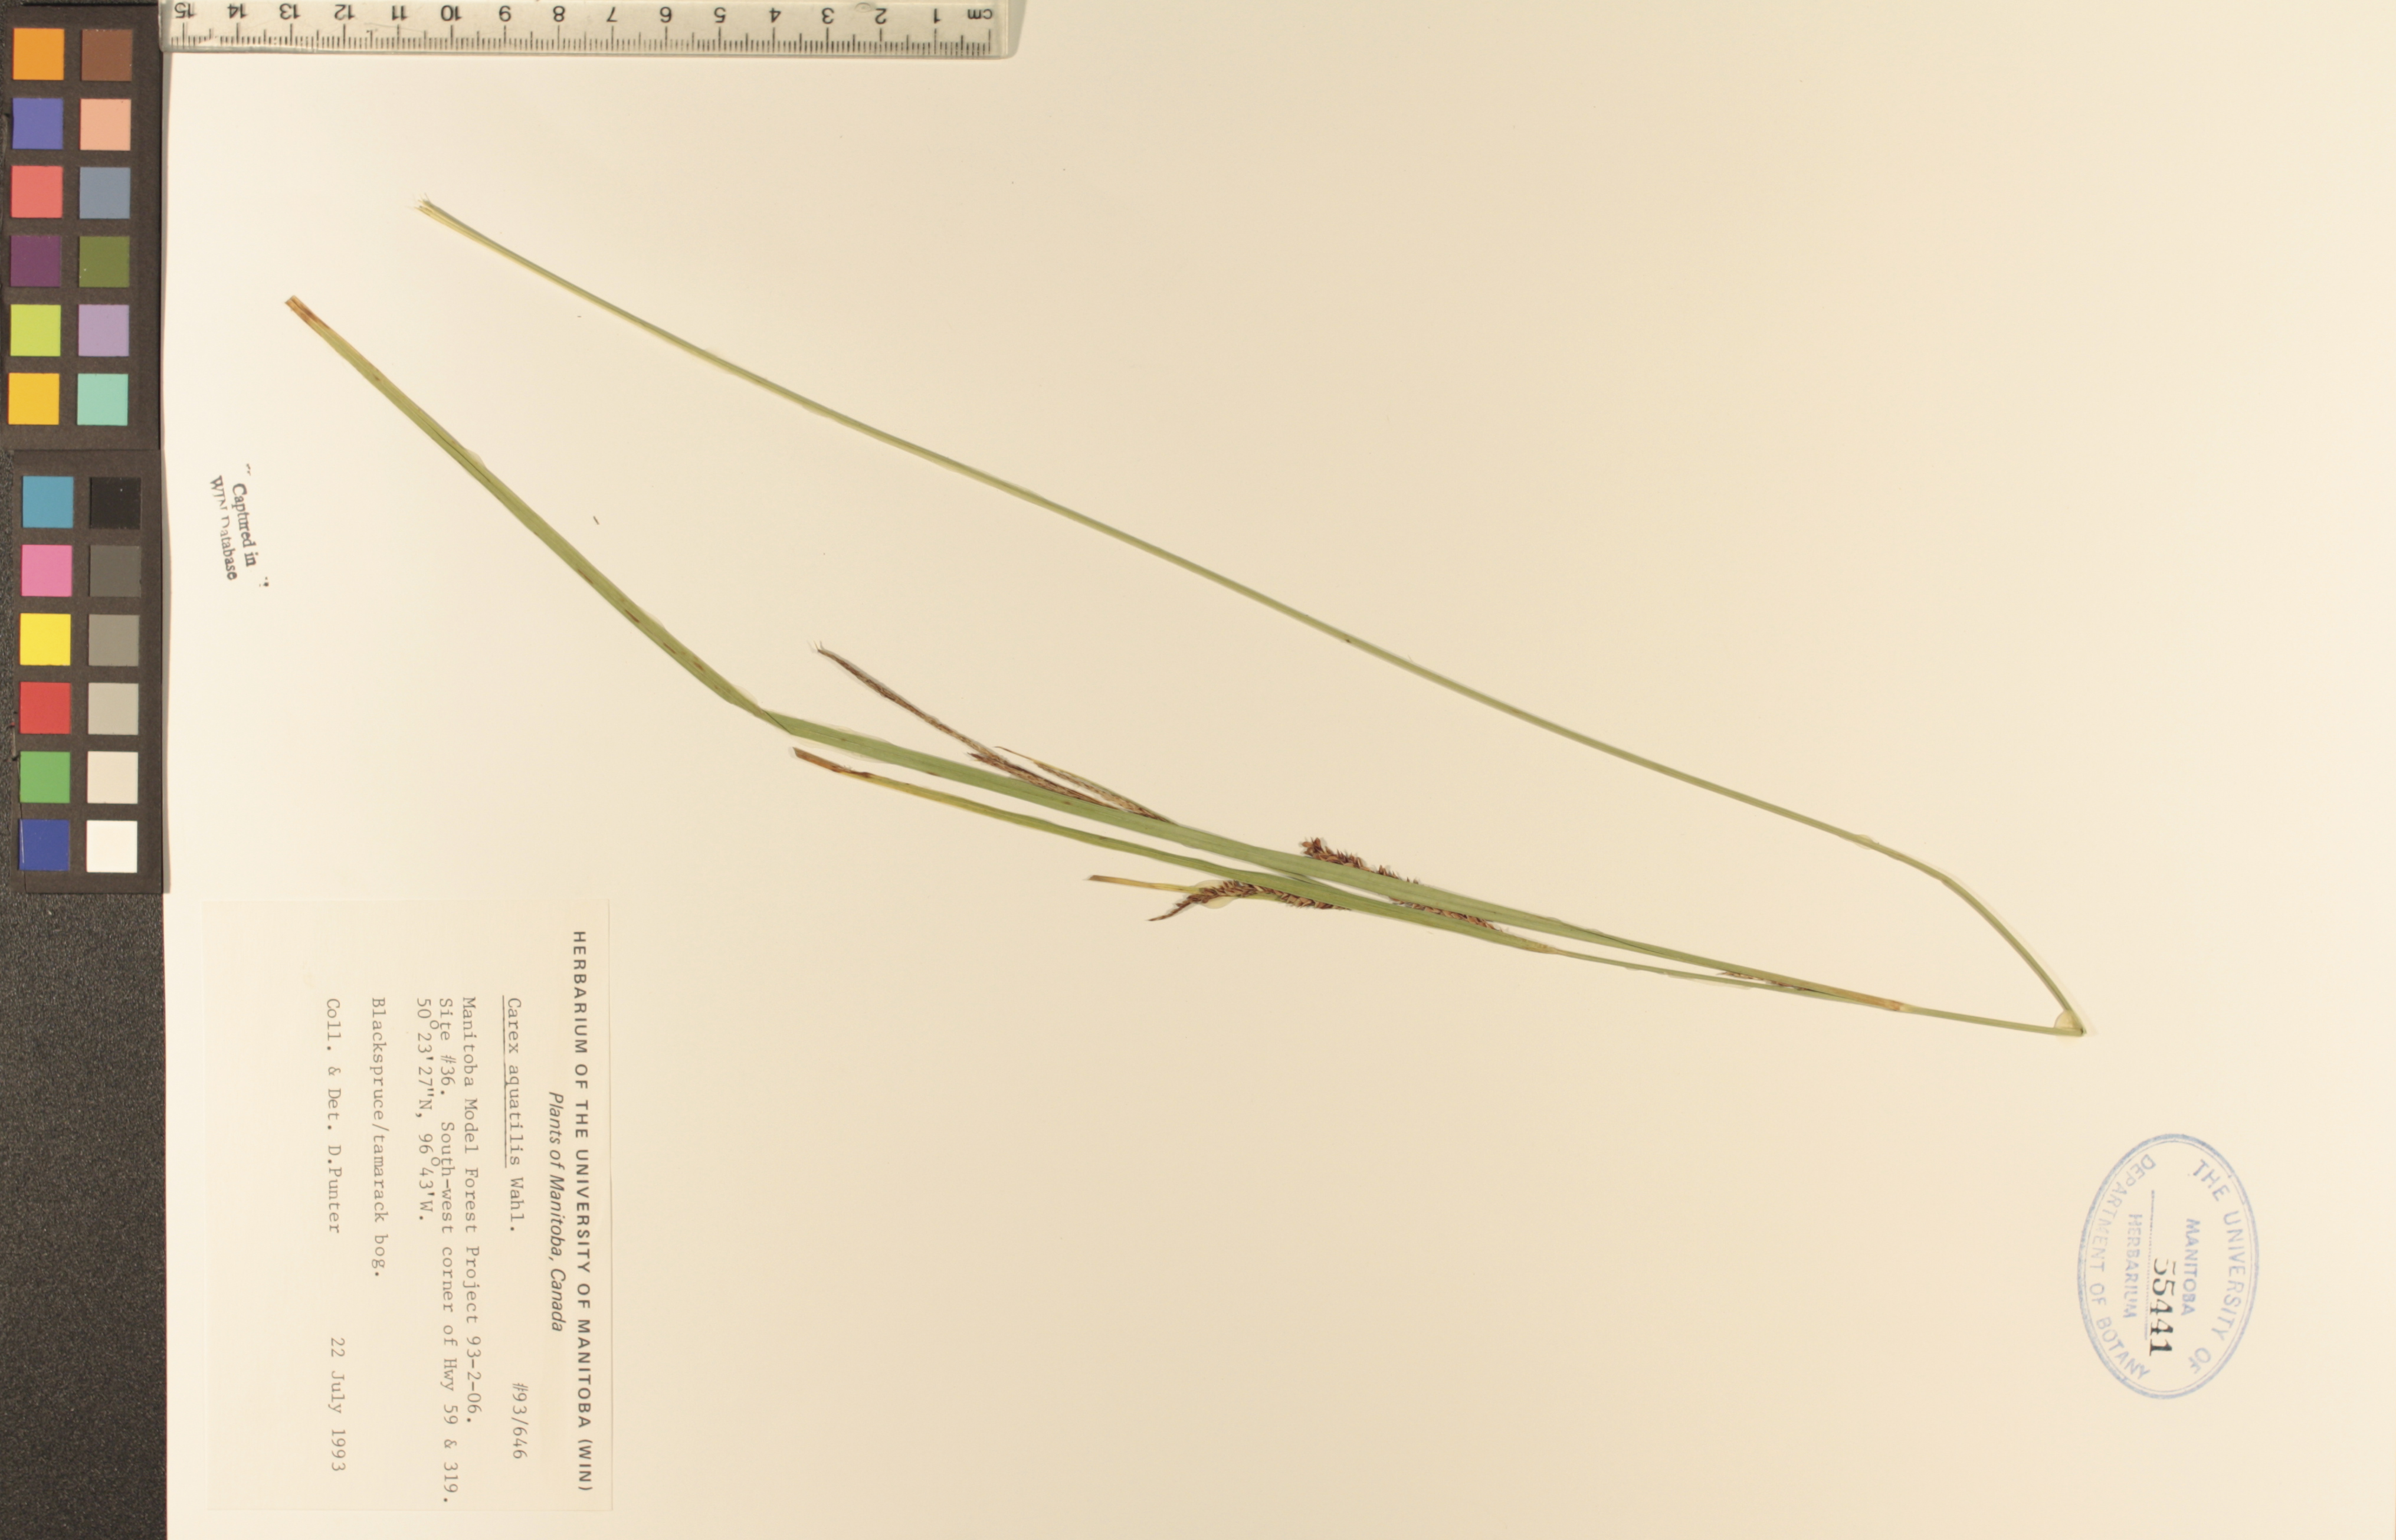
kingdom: Plantae
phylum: Tracheophyta
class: Liliopsida
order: Poales
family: Cyperaceae
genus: Carex
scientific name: Carex aquatilis
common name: Water sedge
